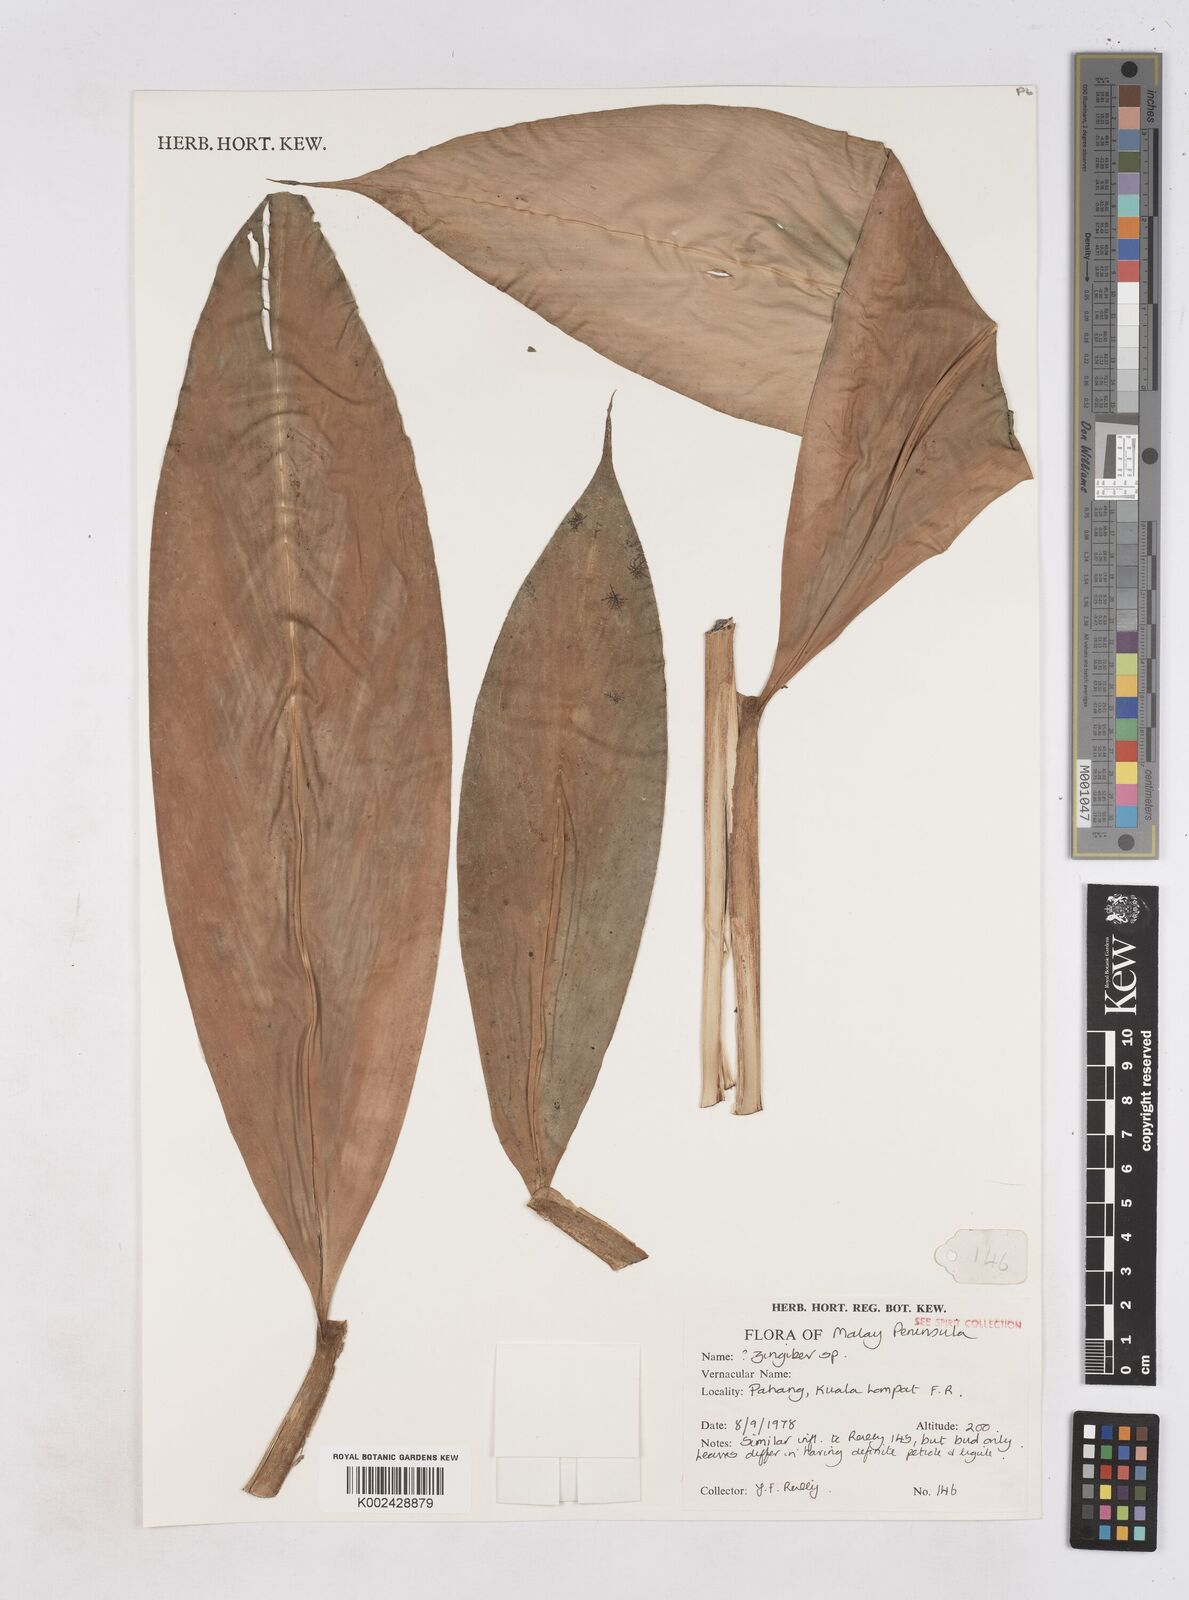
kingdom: Plantae
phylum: Tracheophyta
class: Liliopsida
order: Zingiberales
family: Zingiberaceae
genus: Zingiber
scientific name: Zingiber
